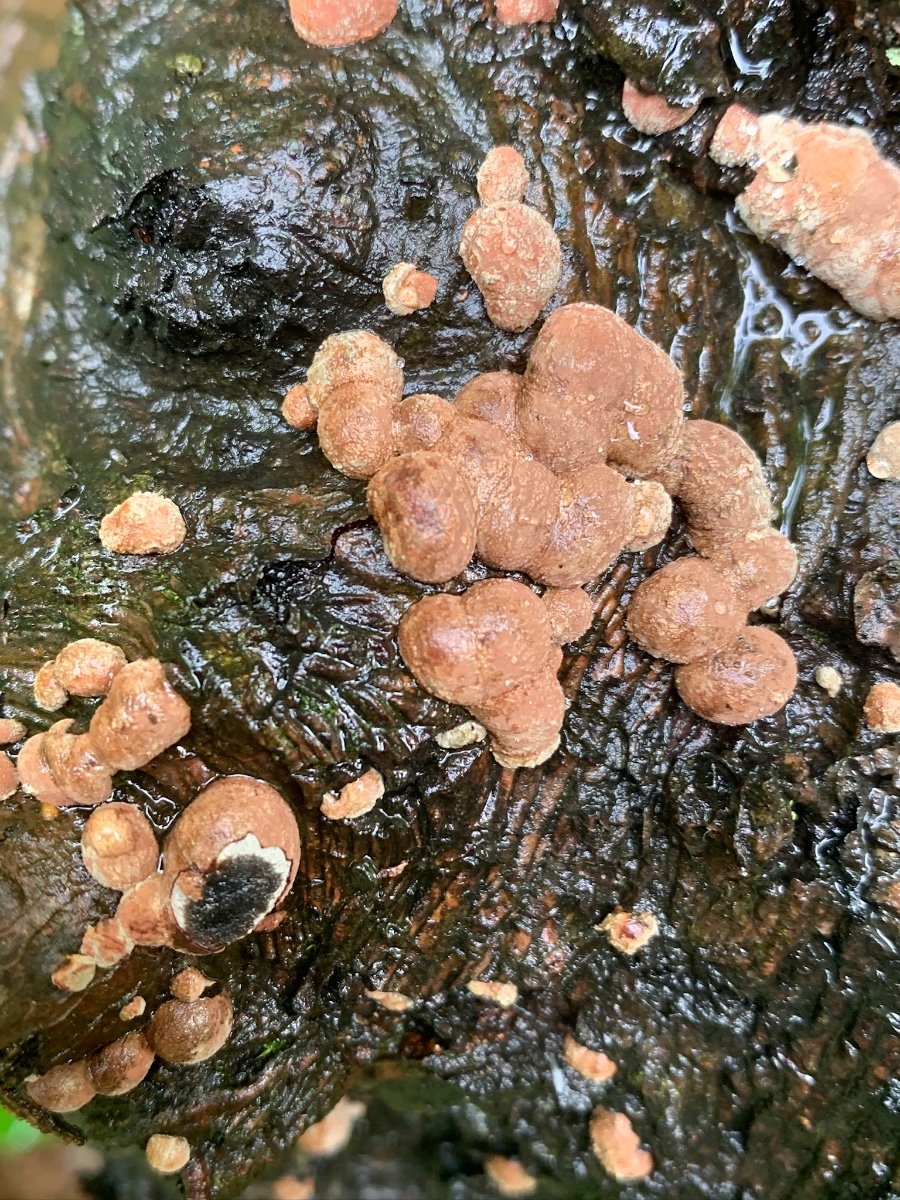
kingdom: Fungi
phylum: Ascomycota
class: Sordariomycetes
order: Xylariales
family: Hypoxylaceae
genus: Hypoxylon
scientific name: Hypoxylon fragiforme
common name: kuljordbær
